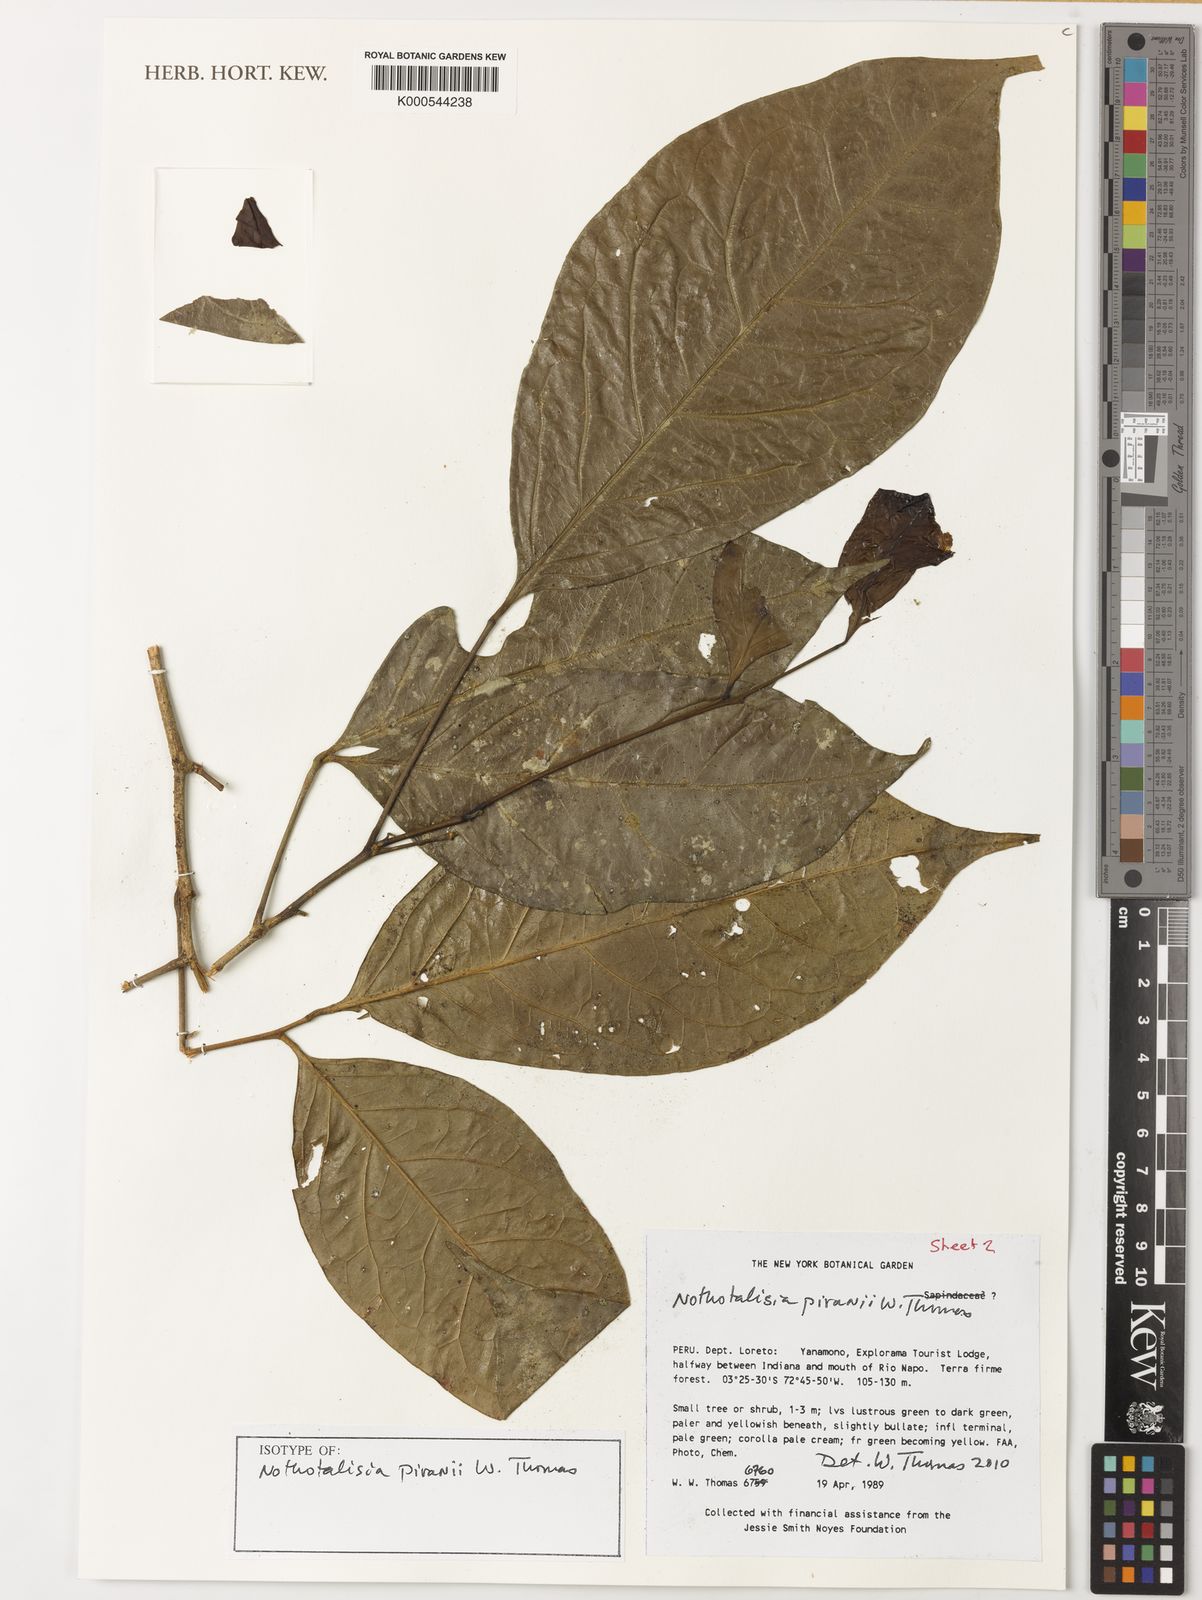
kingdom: Plantae
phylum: Tracheophyta
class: Magnoliopsida
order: Picramniales
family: Picramniaceae
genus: Nothotalisia
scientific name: Nothotalisia piranii
